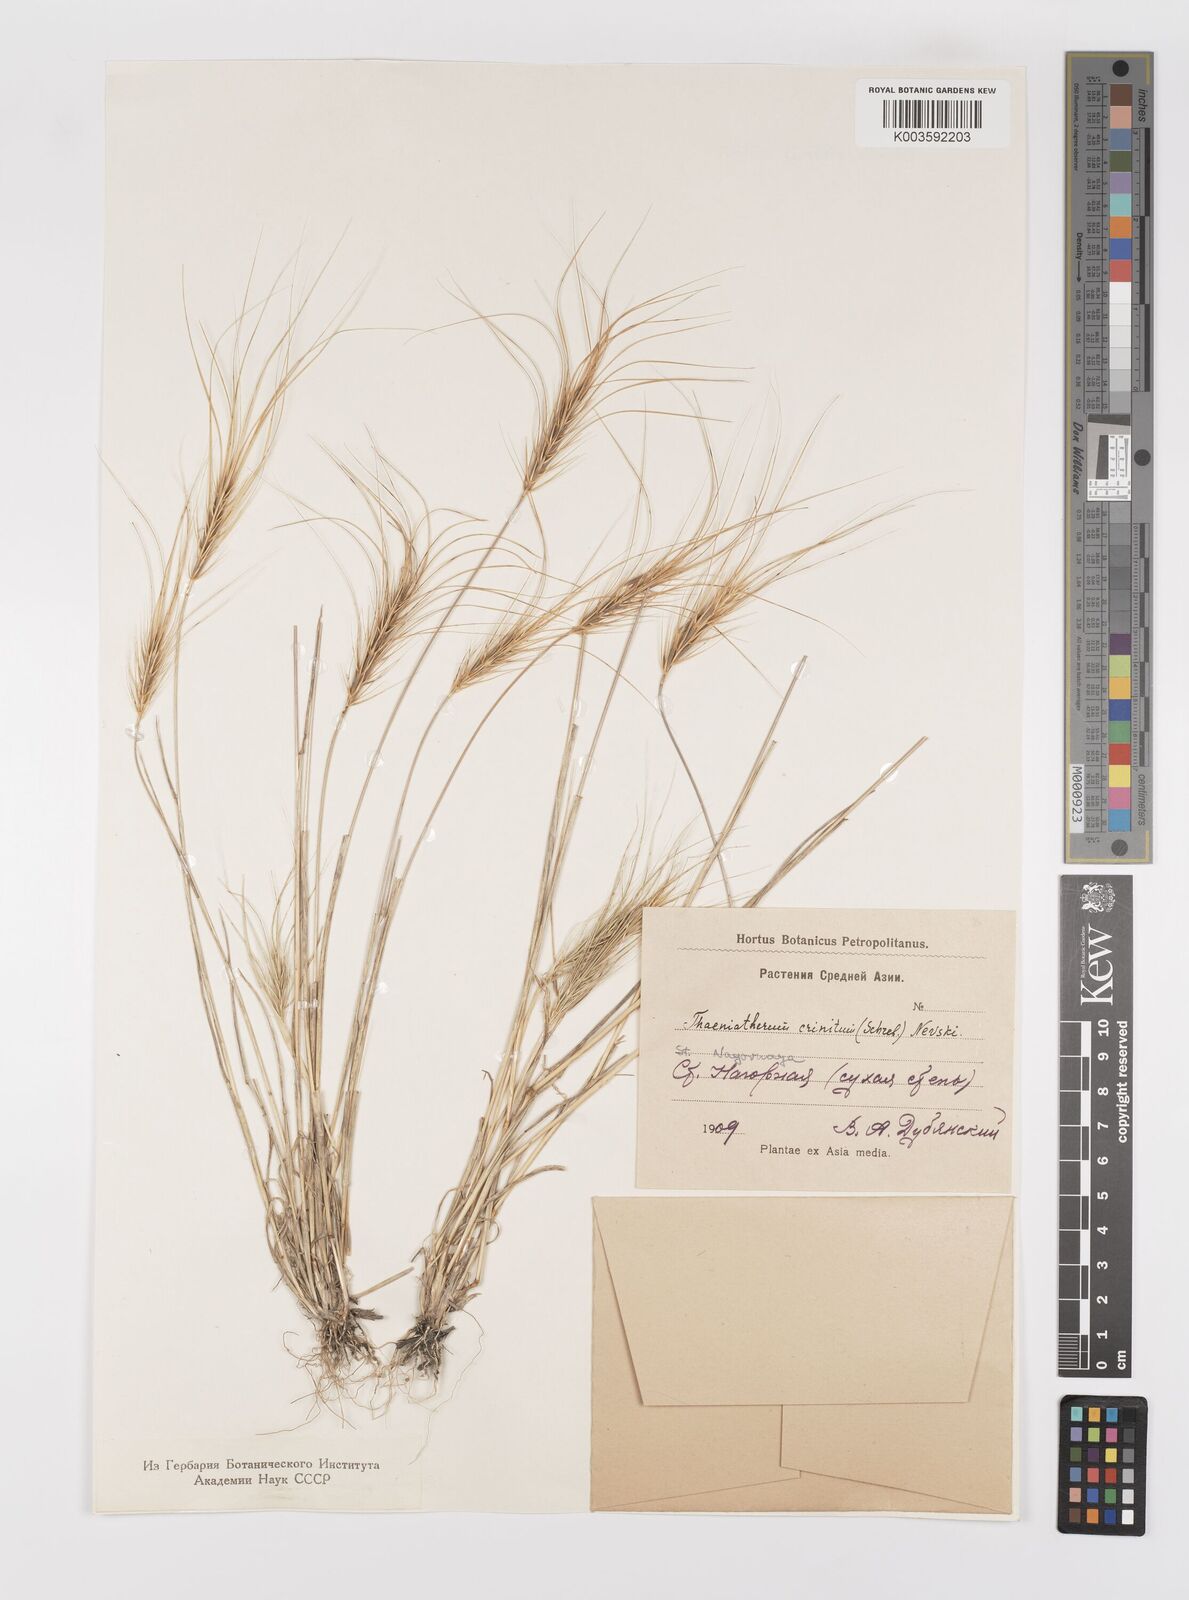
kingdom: Plantae
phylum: Tracheophyta
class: Liliopsida
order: Poales
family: Poaceae
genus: Taeniatherum
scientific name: Taeniatherum caput-medusae
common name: Medusahead
